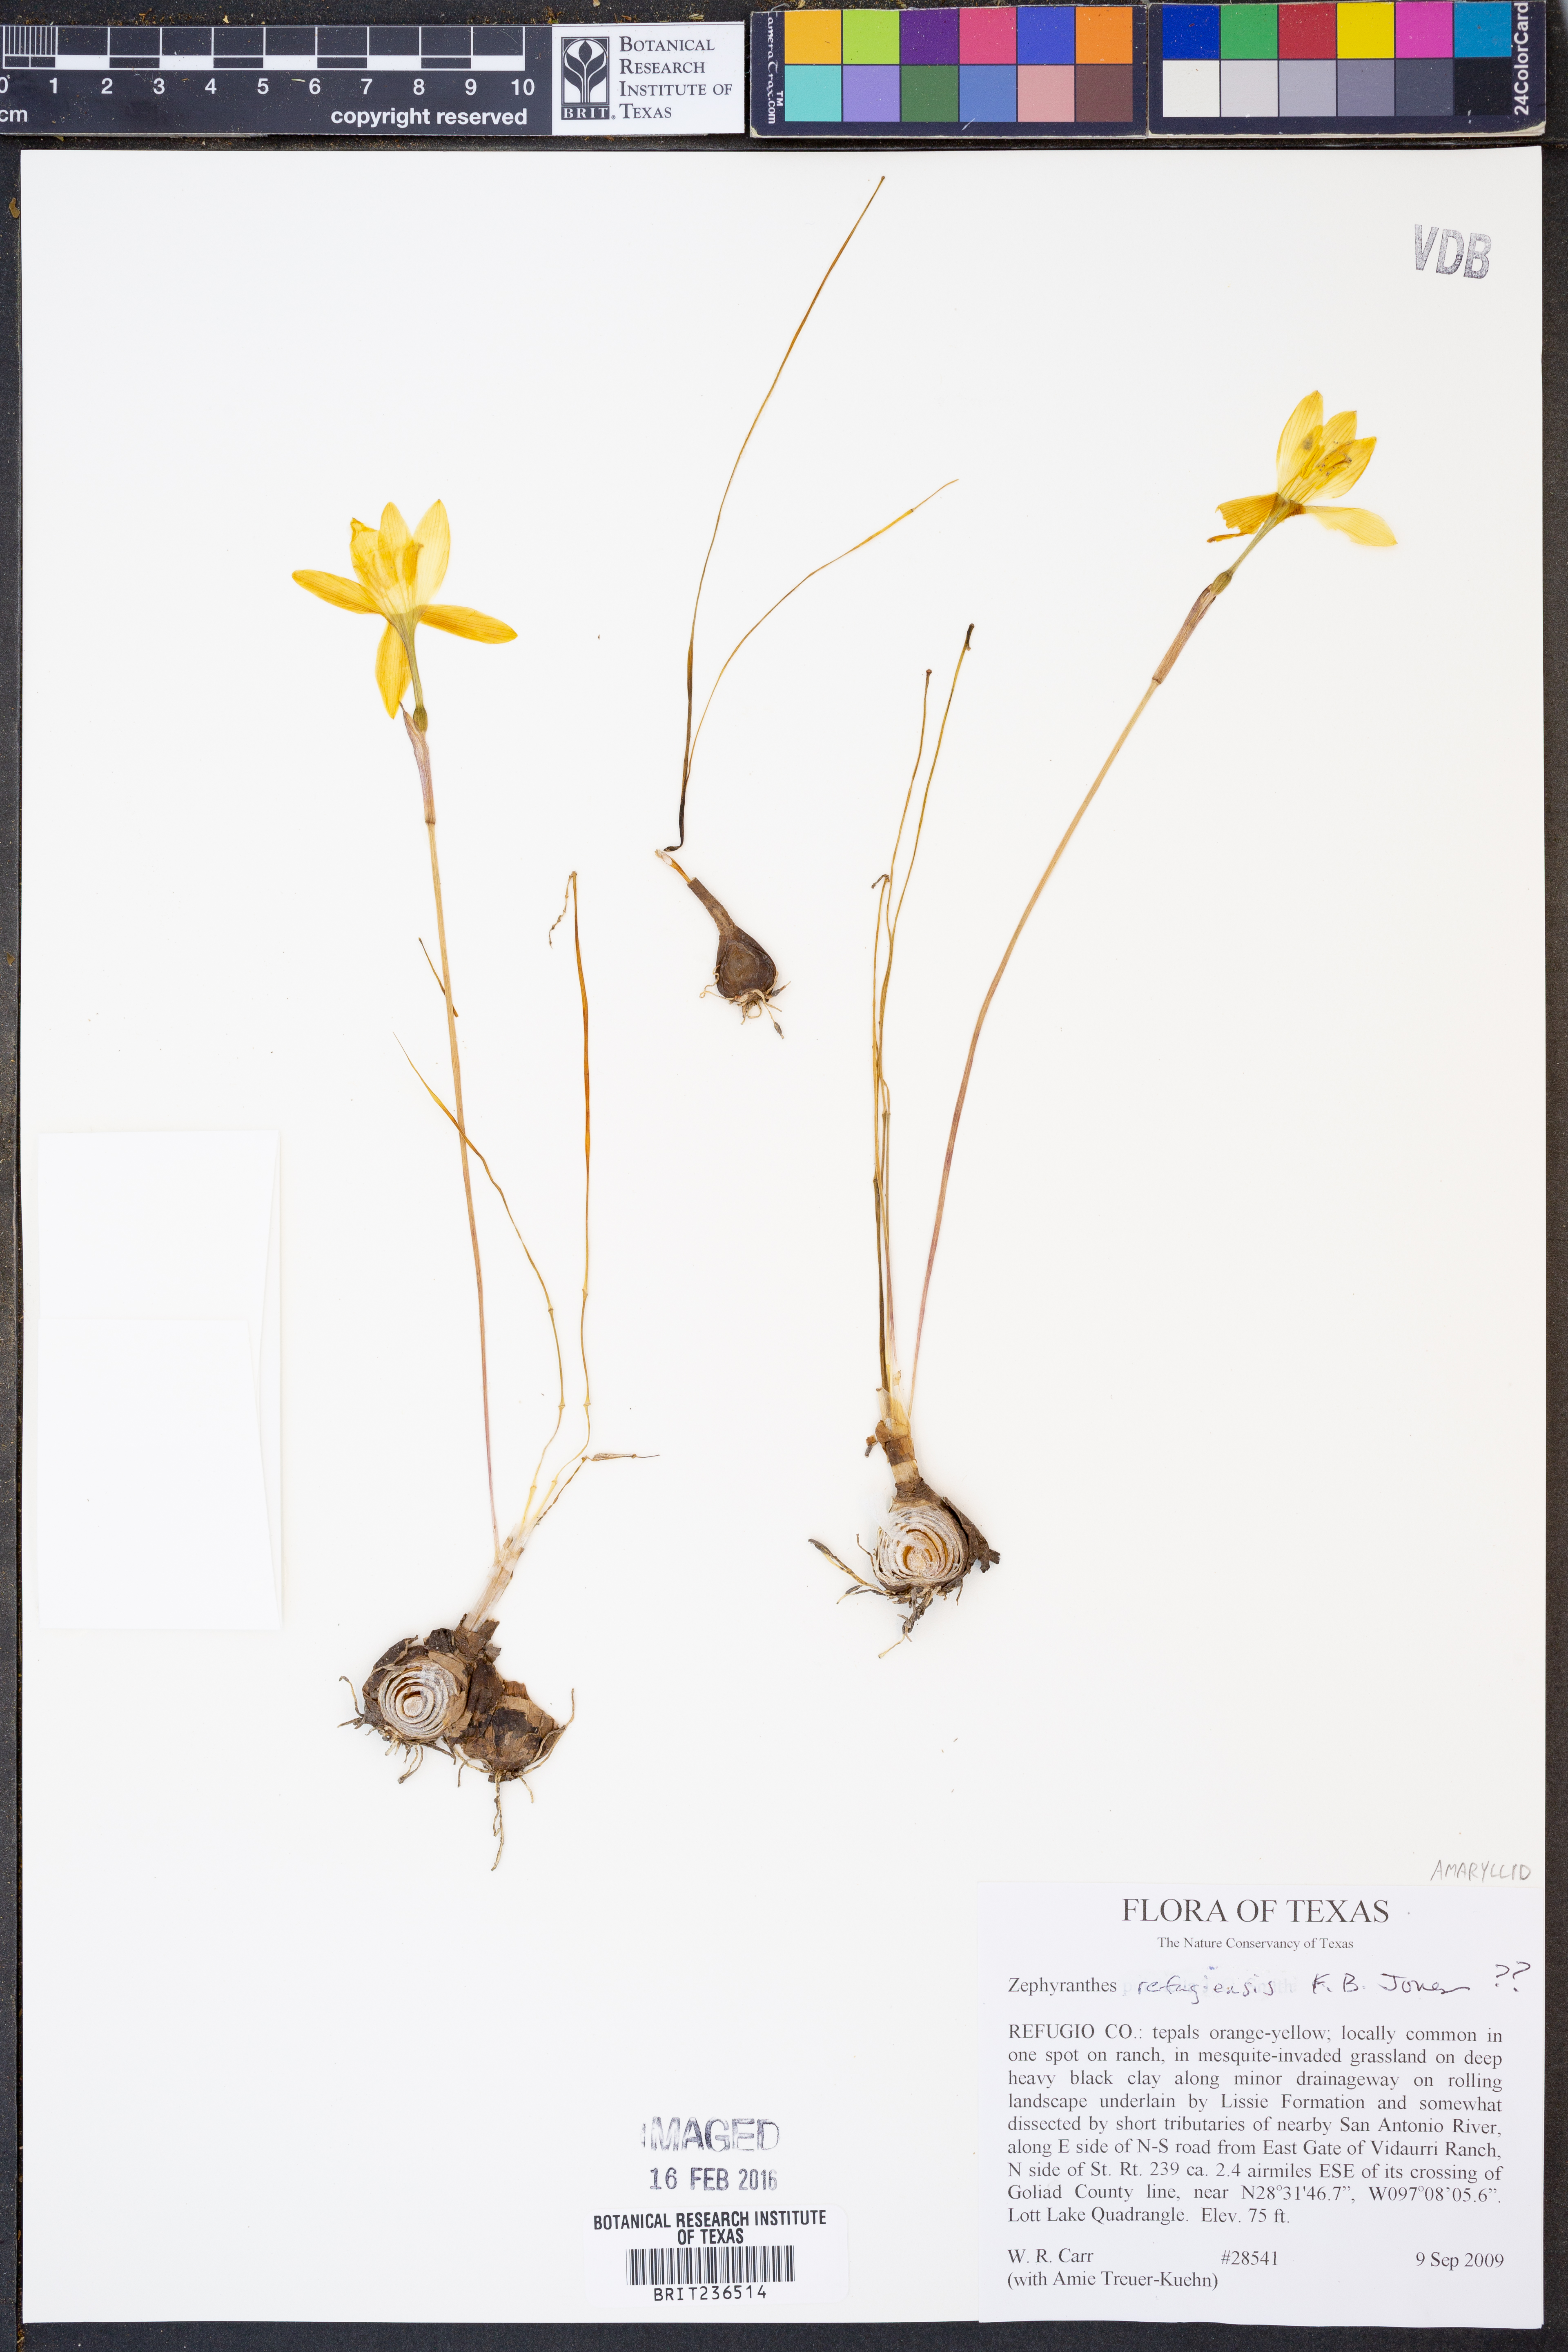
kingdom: Plantae
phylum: Tracheophyta
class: Liliopsida
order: Asparagales
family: Amaryllidaceae
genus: Zephyranthes
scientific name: Zephyranthes refugiensis
